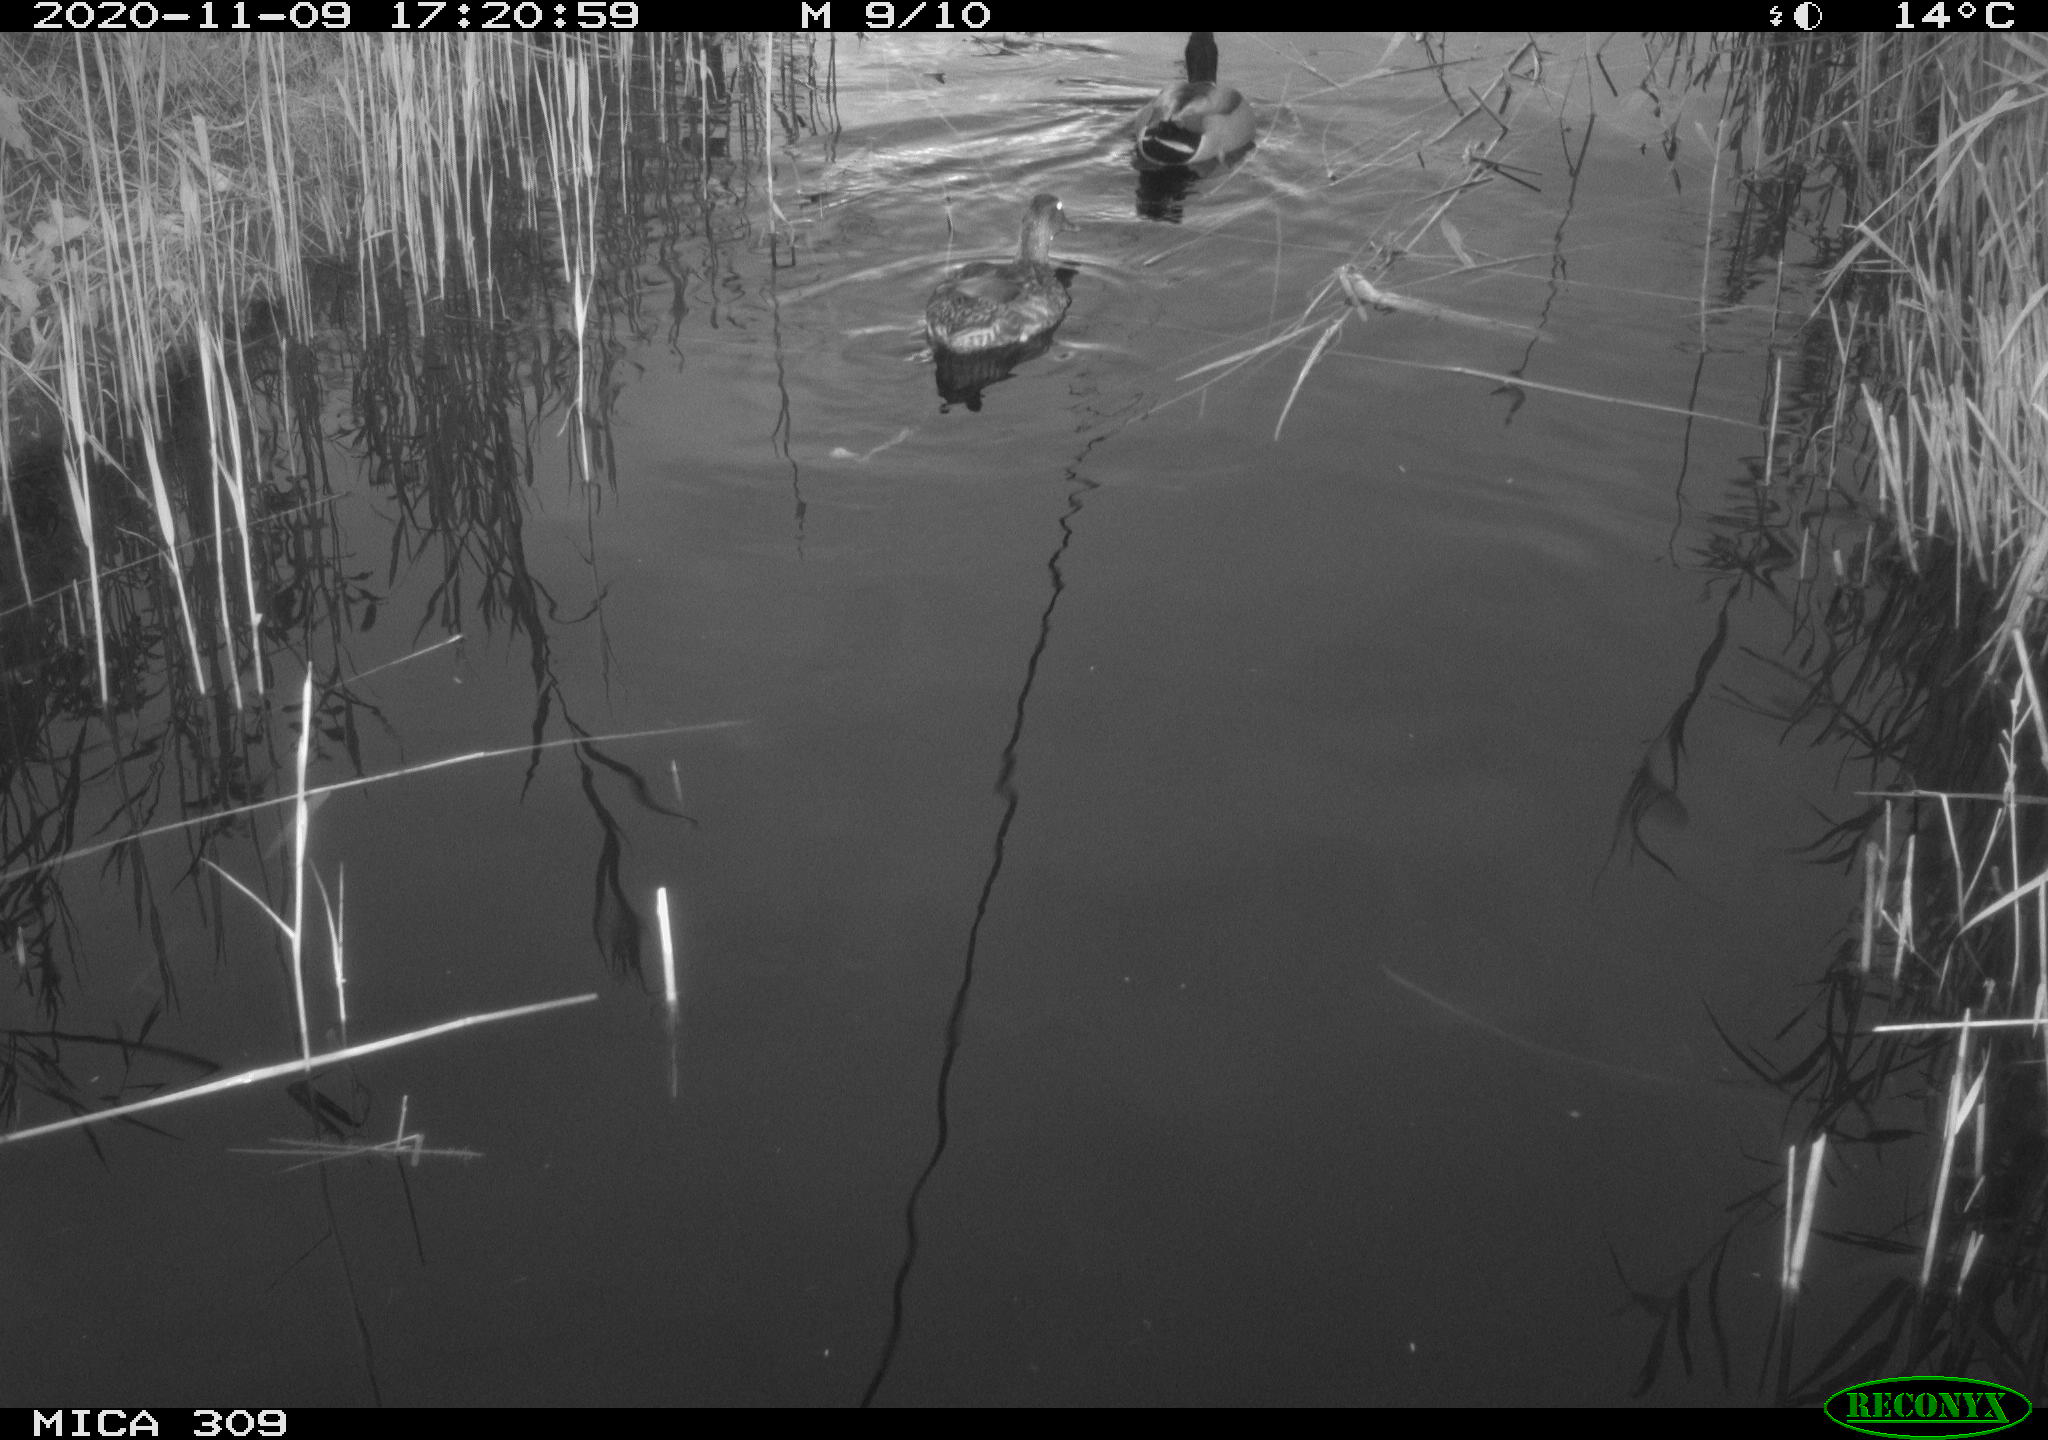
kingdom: Animalia
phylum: Chordata
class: Aves
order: Anseriformes
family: Anatidae
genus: Anas
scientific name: Anas platyrhynchos
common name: Mallard
